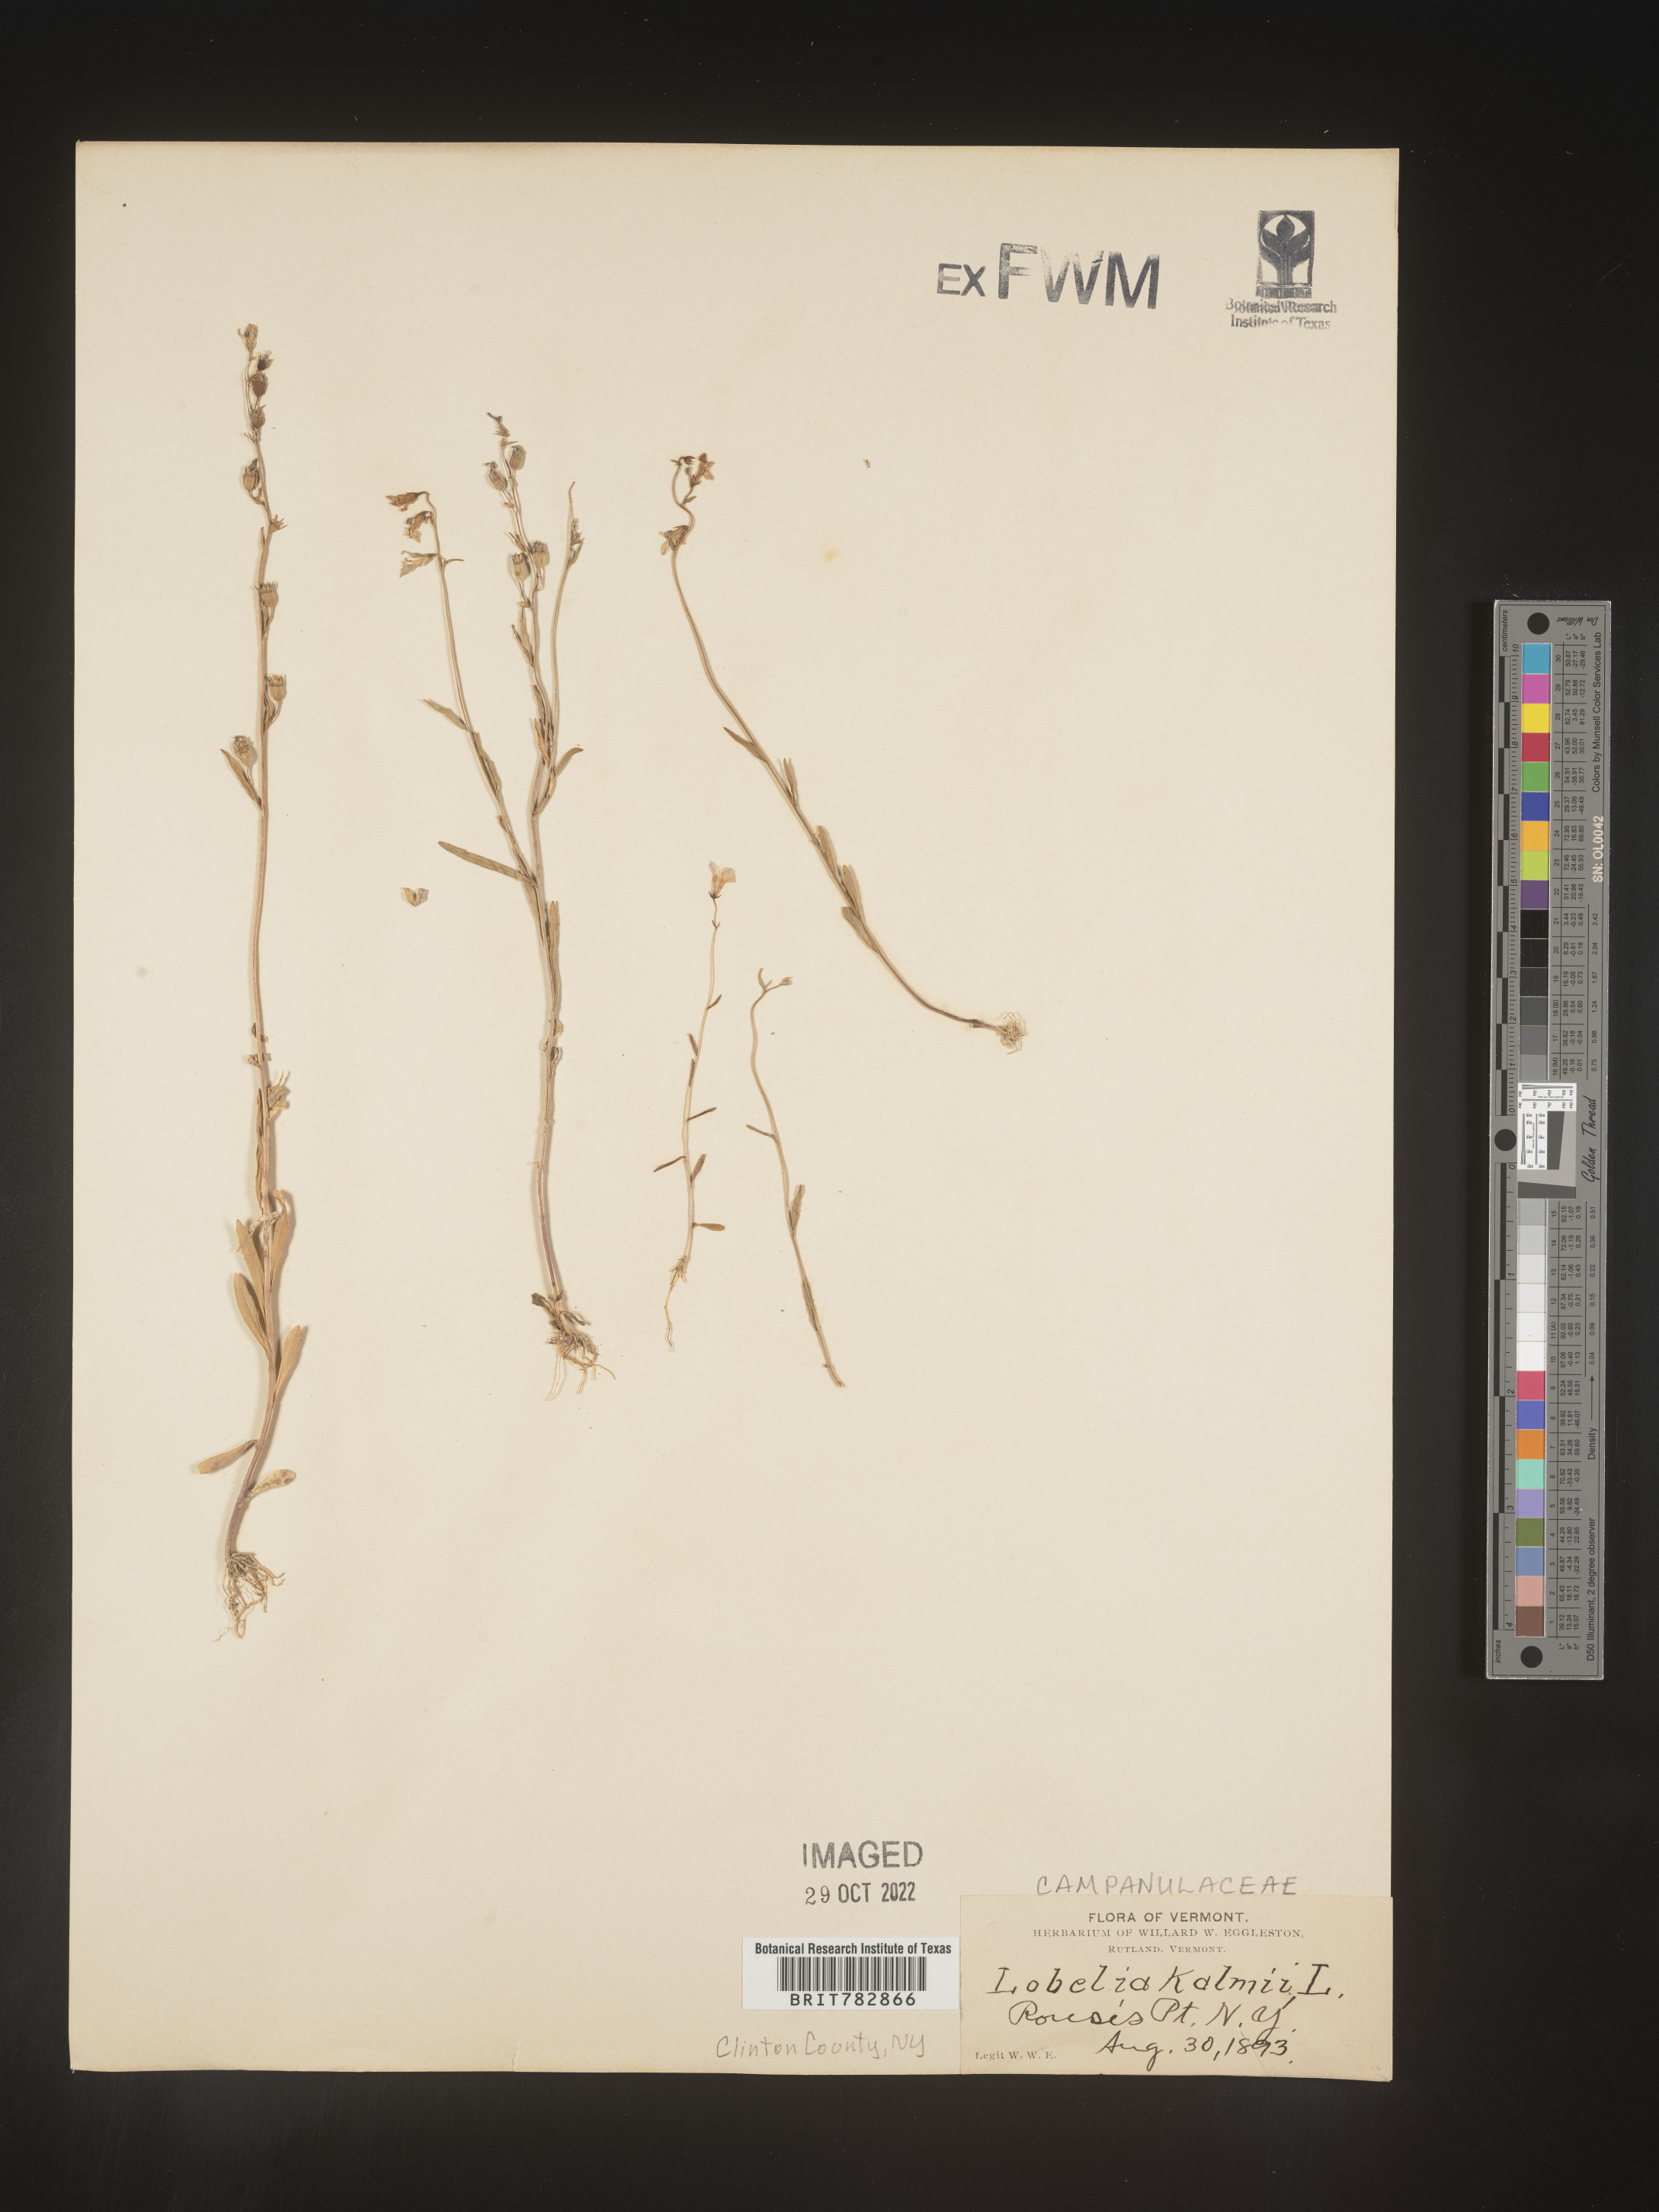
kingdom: Plantae
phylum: Tracheophyta
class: Magnoliopsida
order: Asterales
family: Campanulaceae
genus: Lobelia
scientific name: Lobelia
